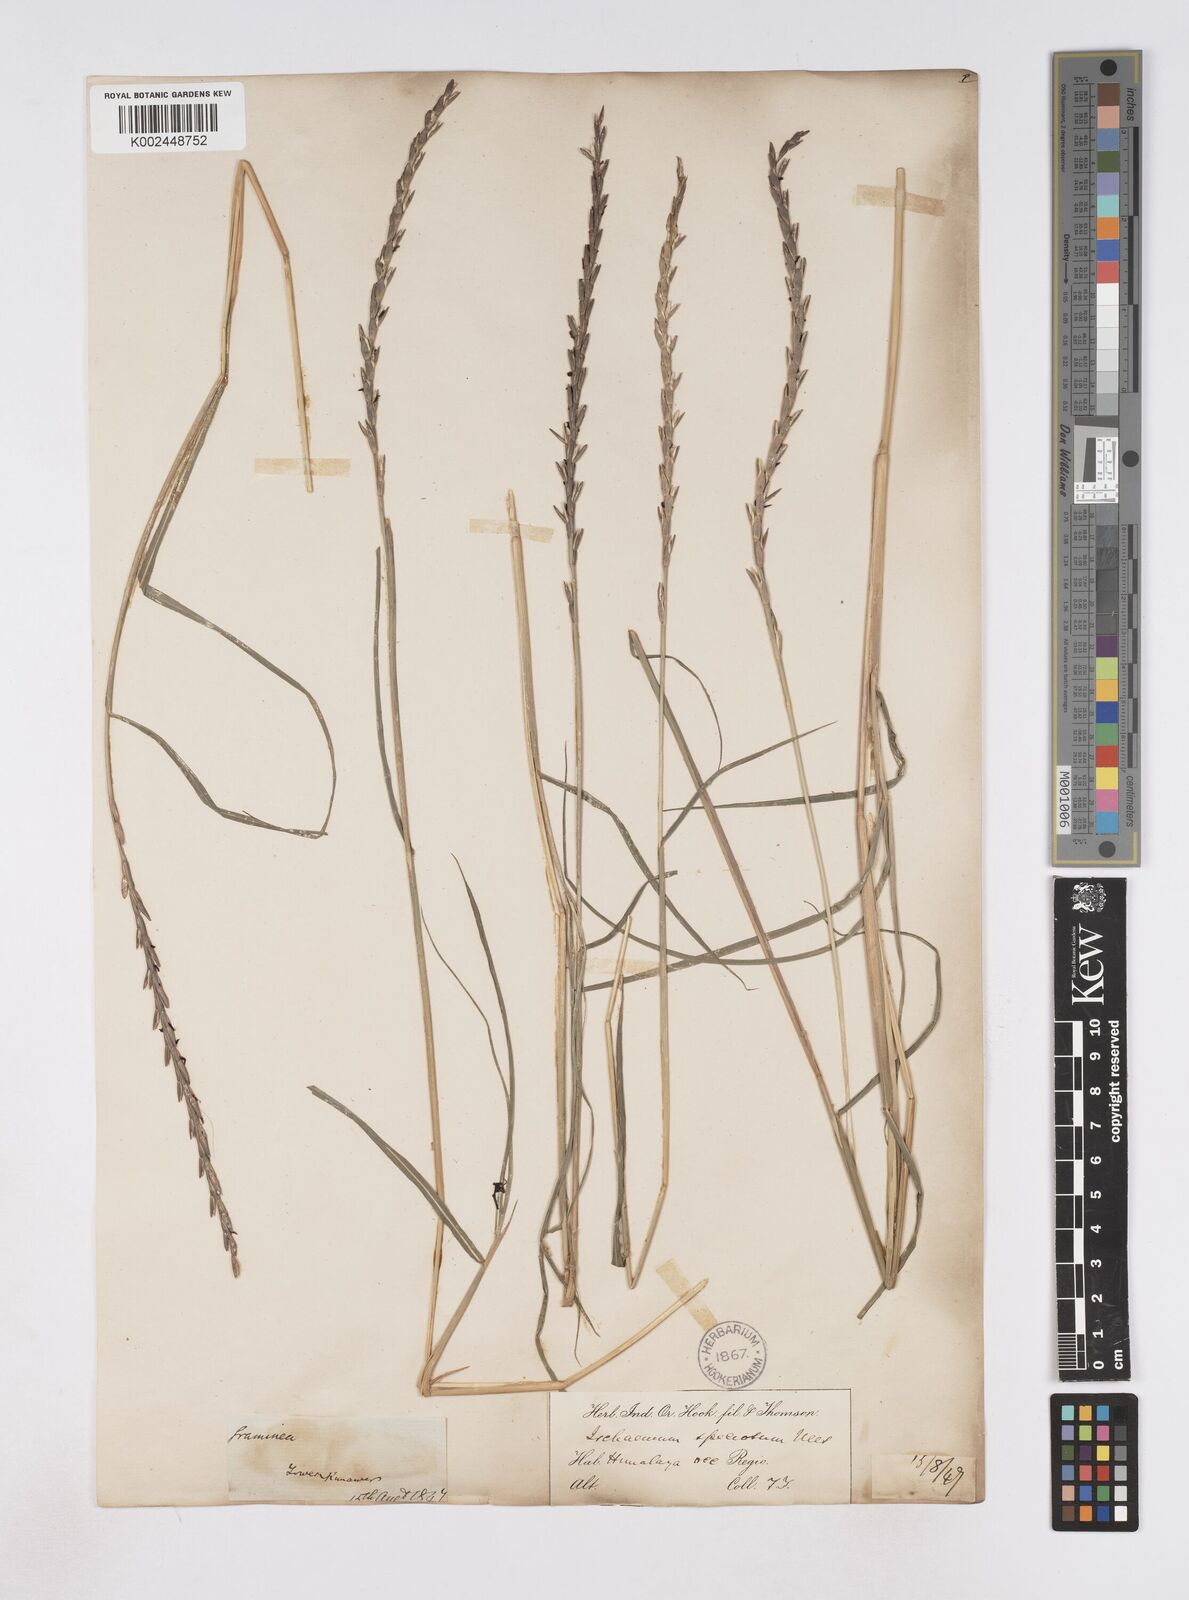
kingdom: Plantae
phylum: Tracheophyta
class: Liliopsida
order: Poales
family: Poaceae
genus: Phacelurus
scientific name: Phacelurus speciosus
